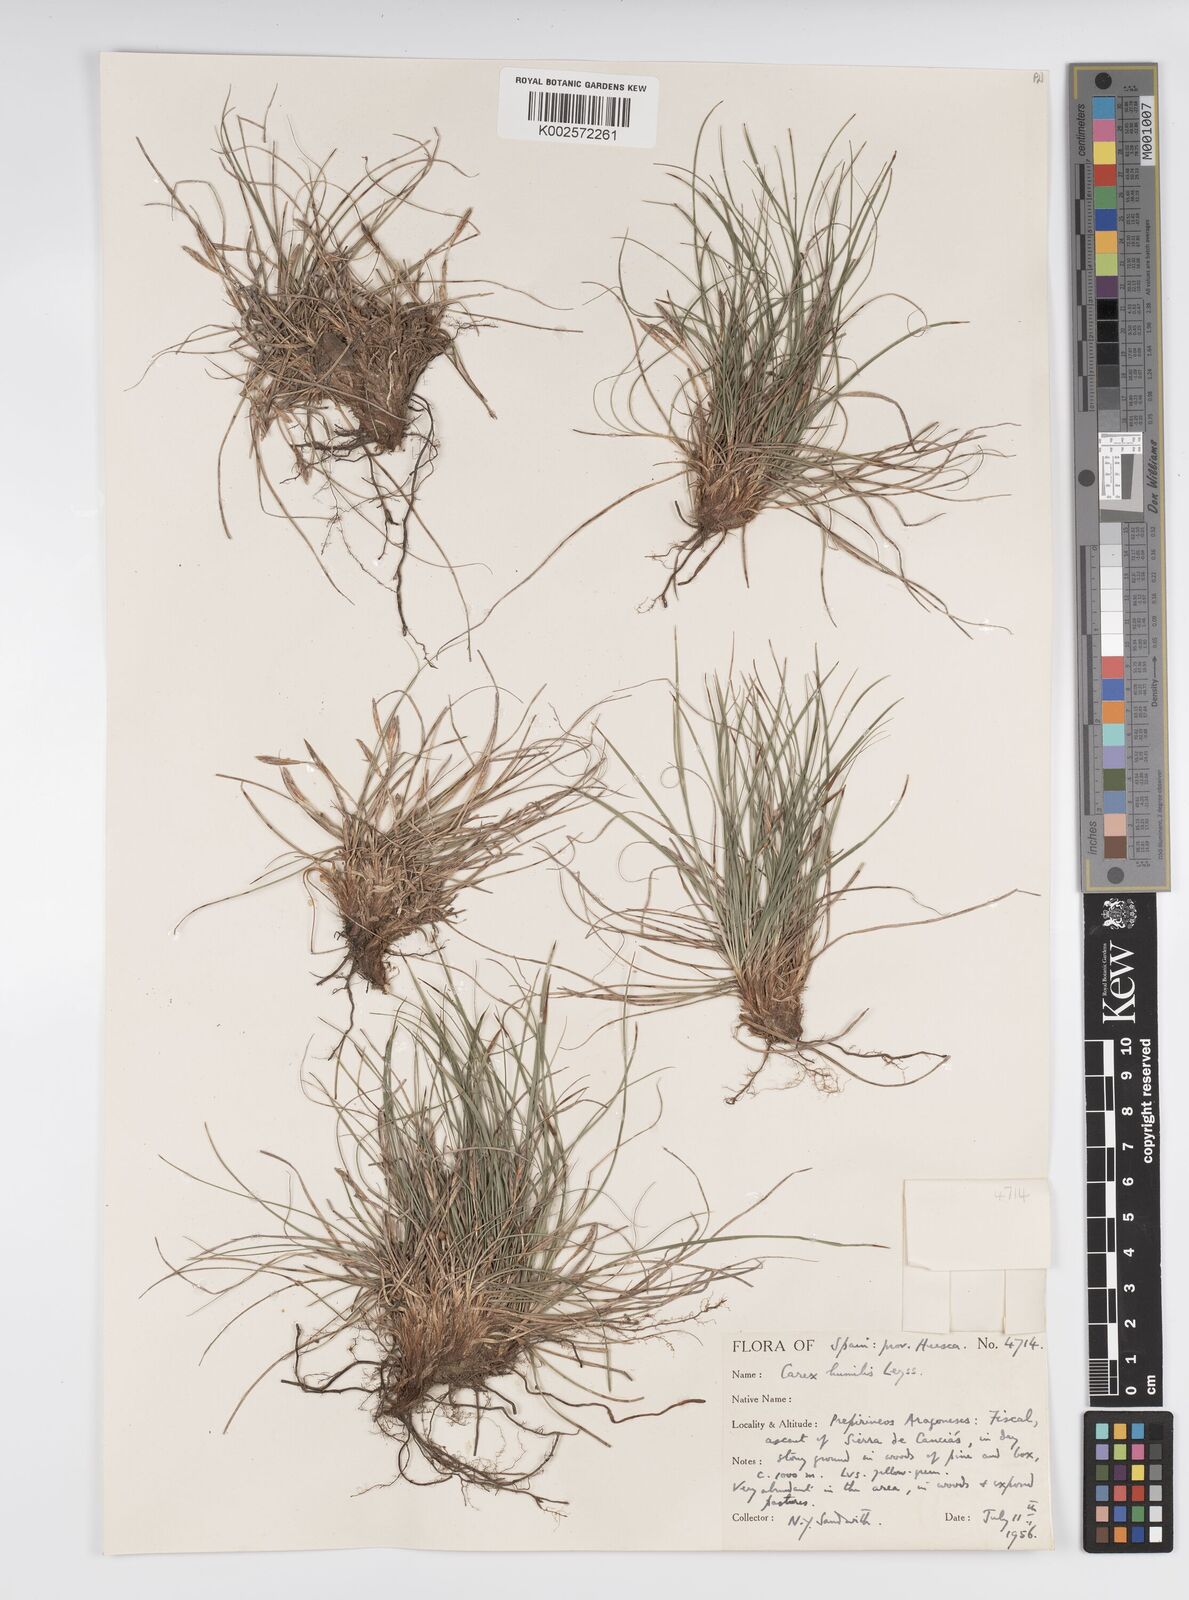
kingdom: Plantae
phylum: Tracheophyta
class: Liliopsida
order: Poales
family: Cyperaceae
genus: Carex
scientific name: Carex humilis
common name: Dwarf sedge
